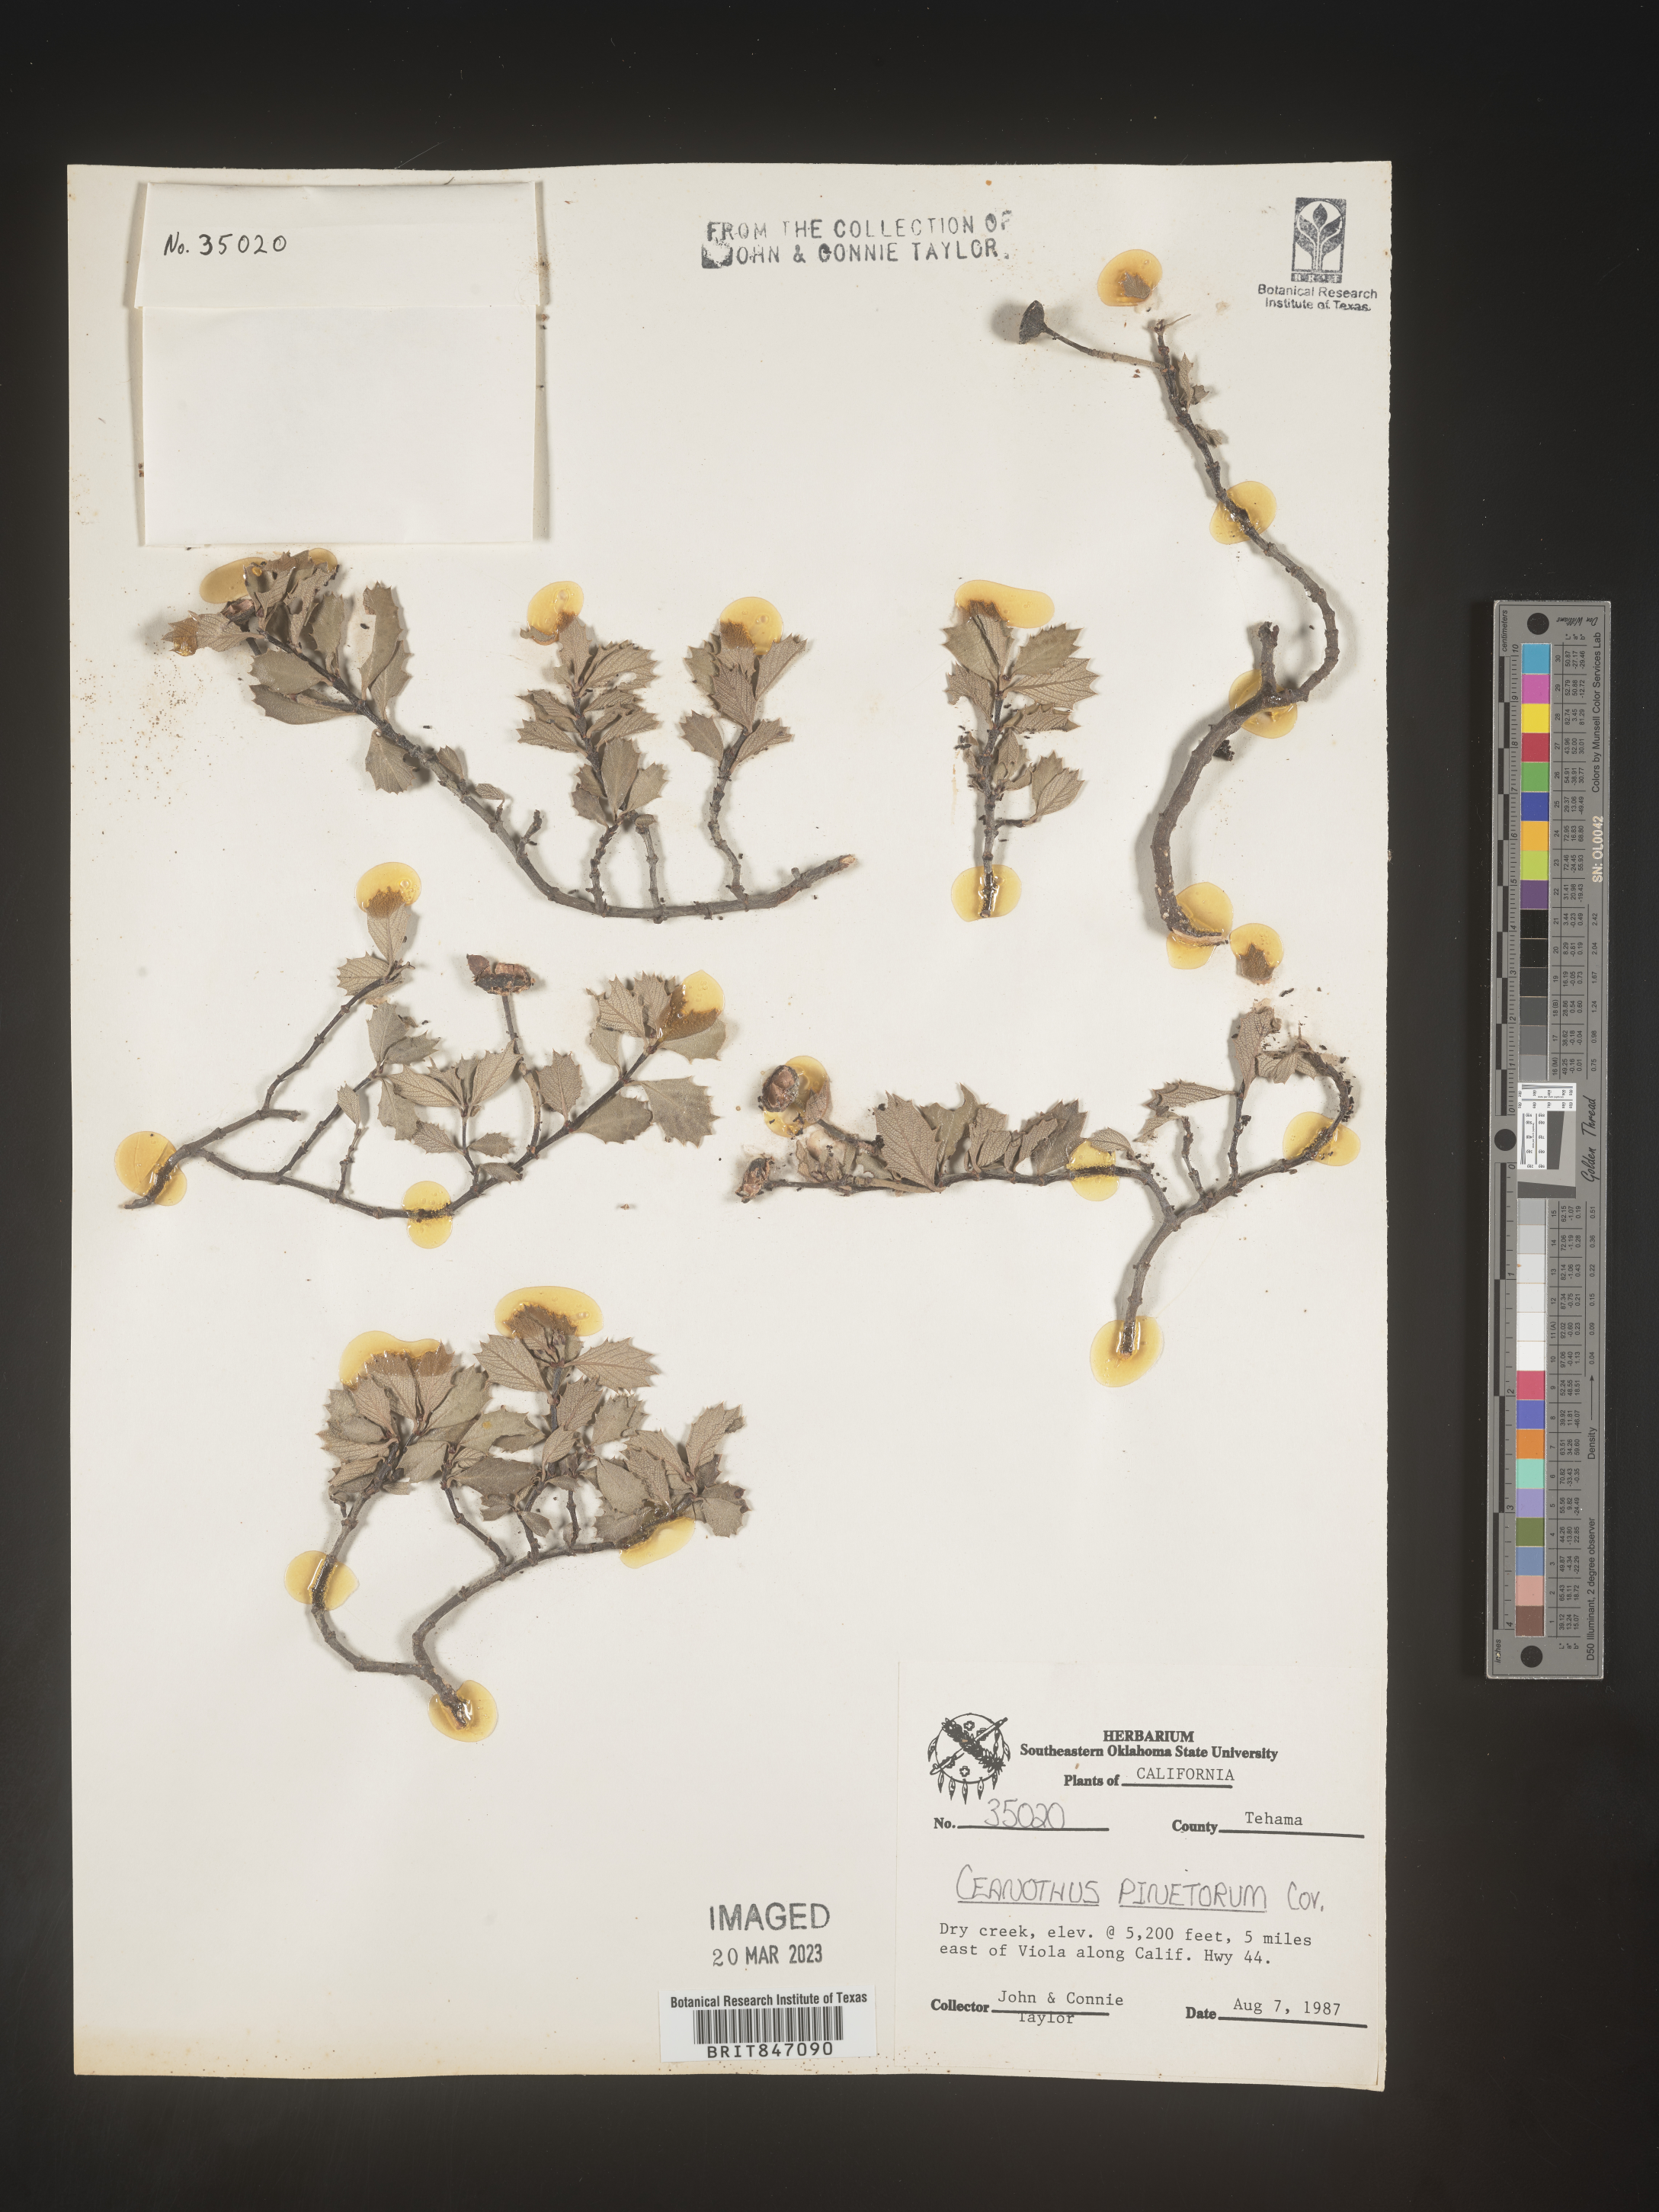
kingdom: Plantae
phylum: Tracheophyta
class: Magnoliopsida
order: Rosales
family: Rhamnaceae
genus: Ceanothus
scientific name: Ceanothus
